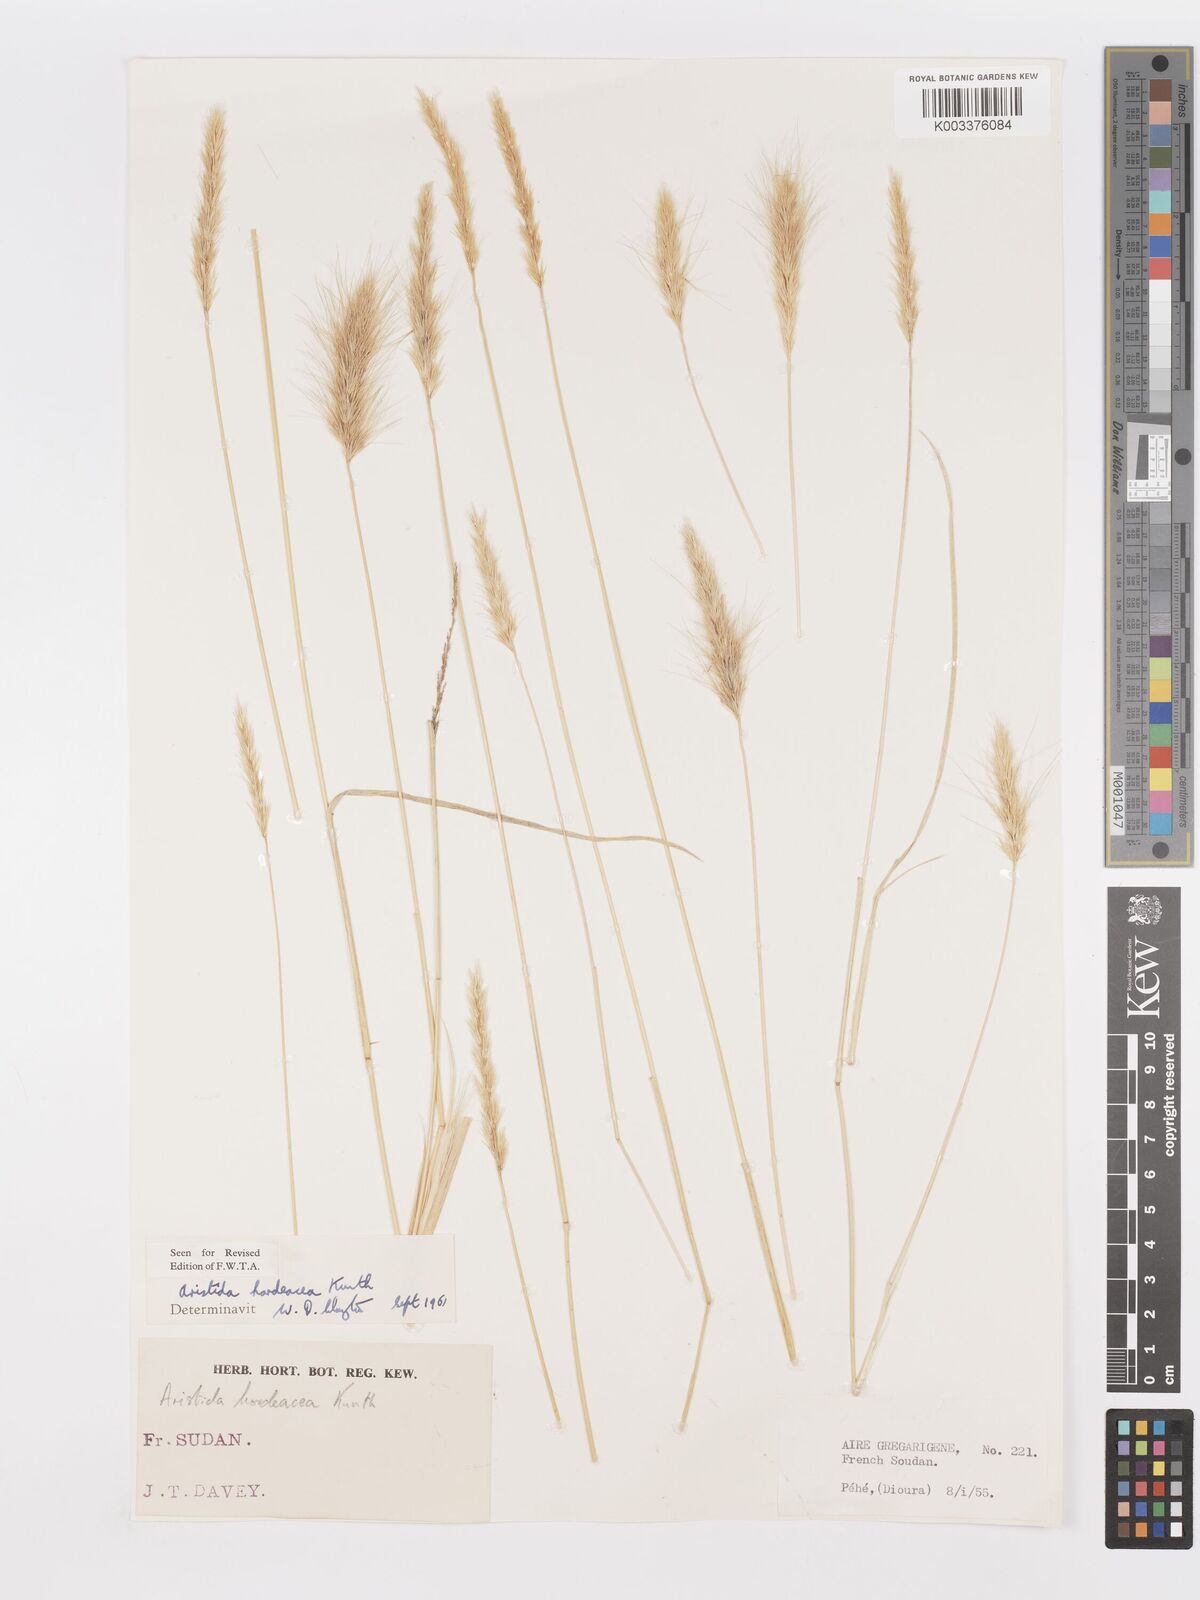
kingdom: Plantae
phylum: Tracheophyta
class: Liliopsida
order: Poales
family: Poaceae
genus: Aristida
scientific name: Aristida hordeacea
